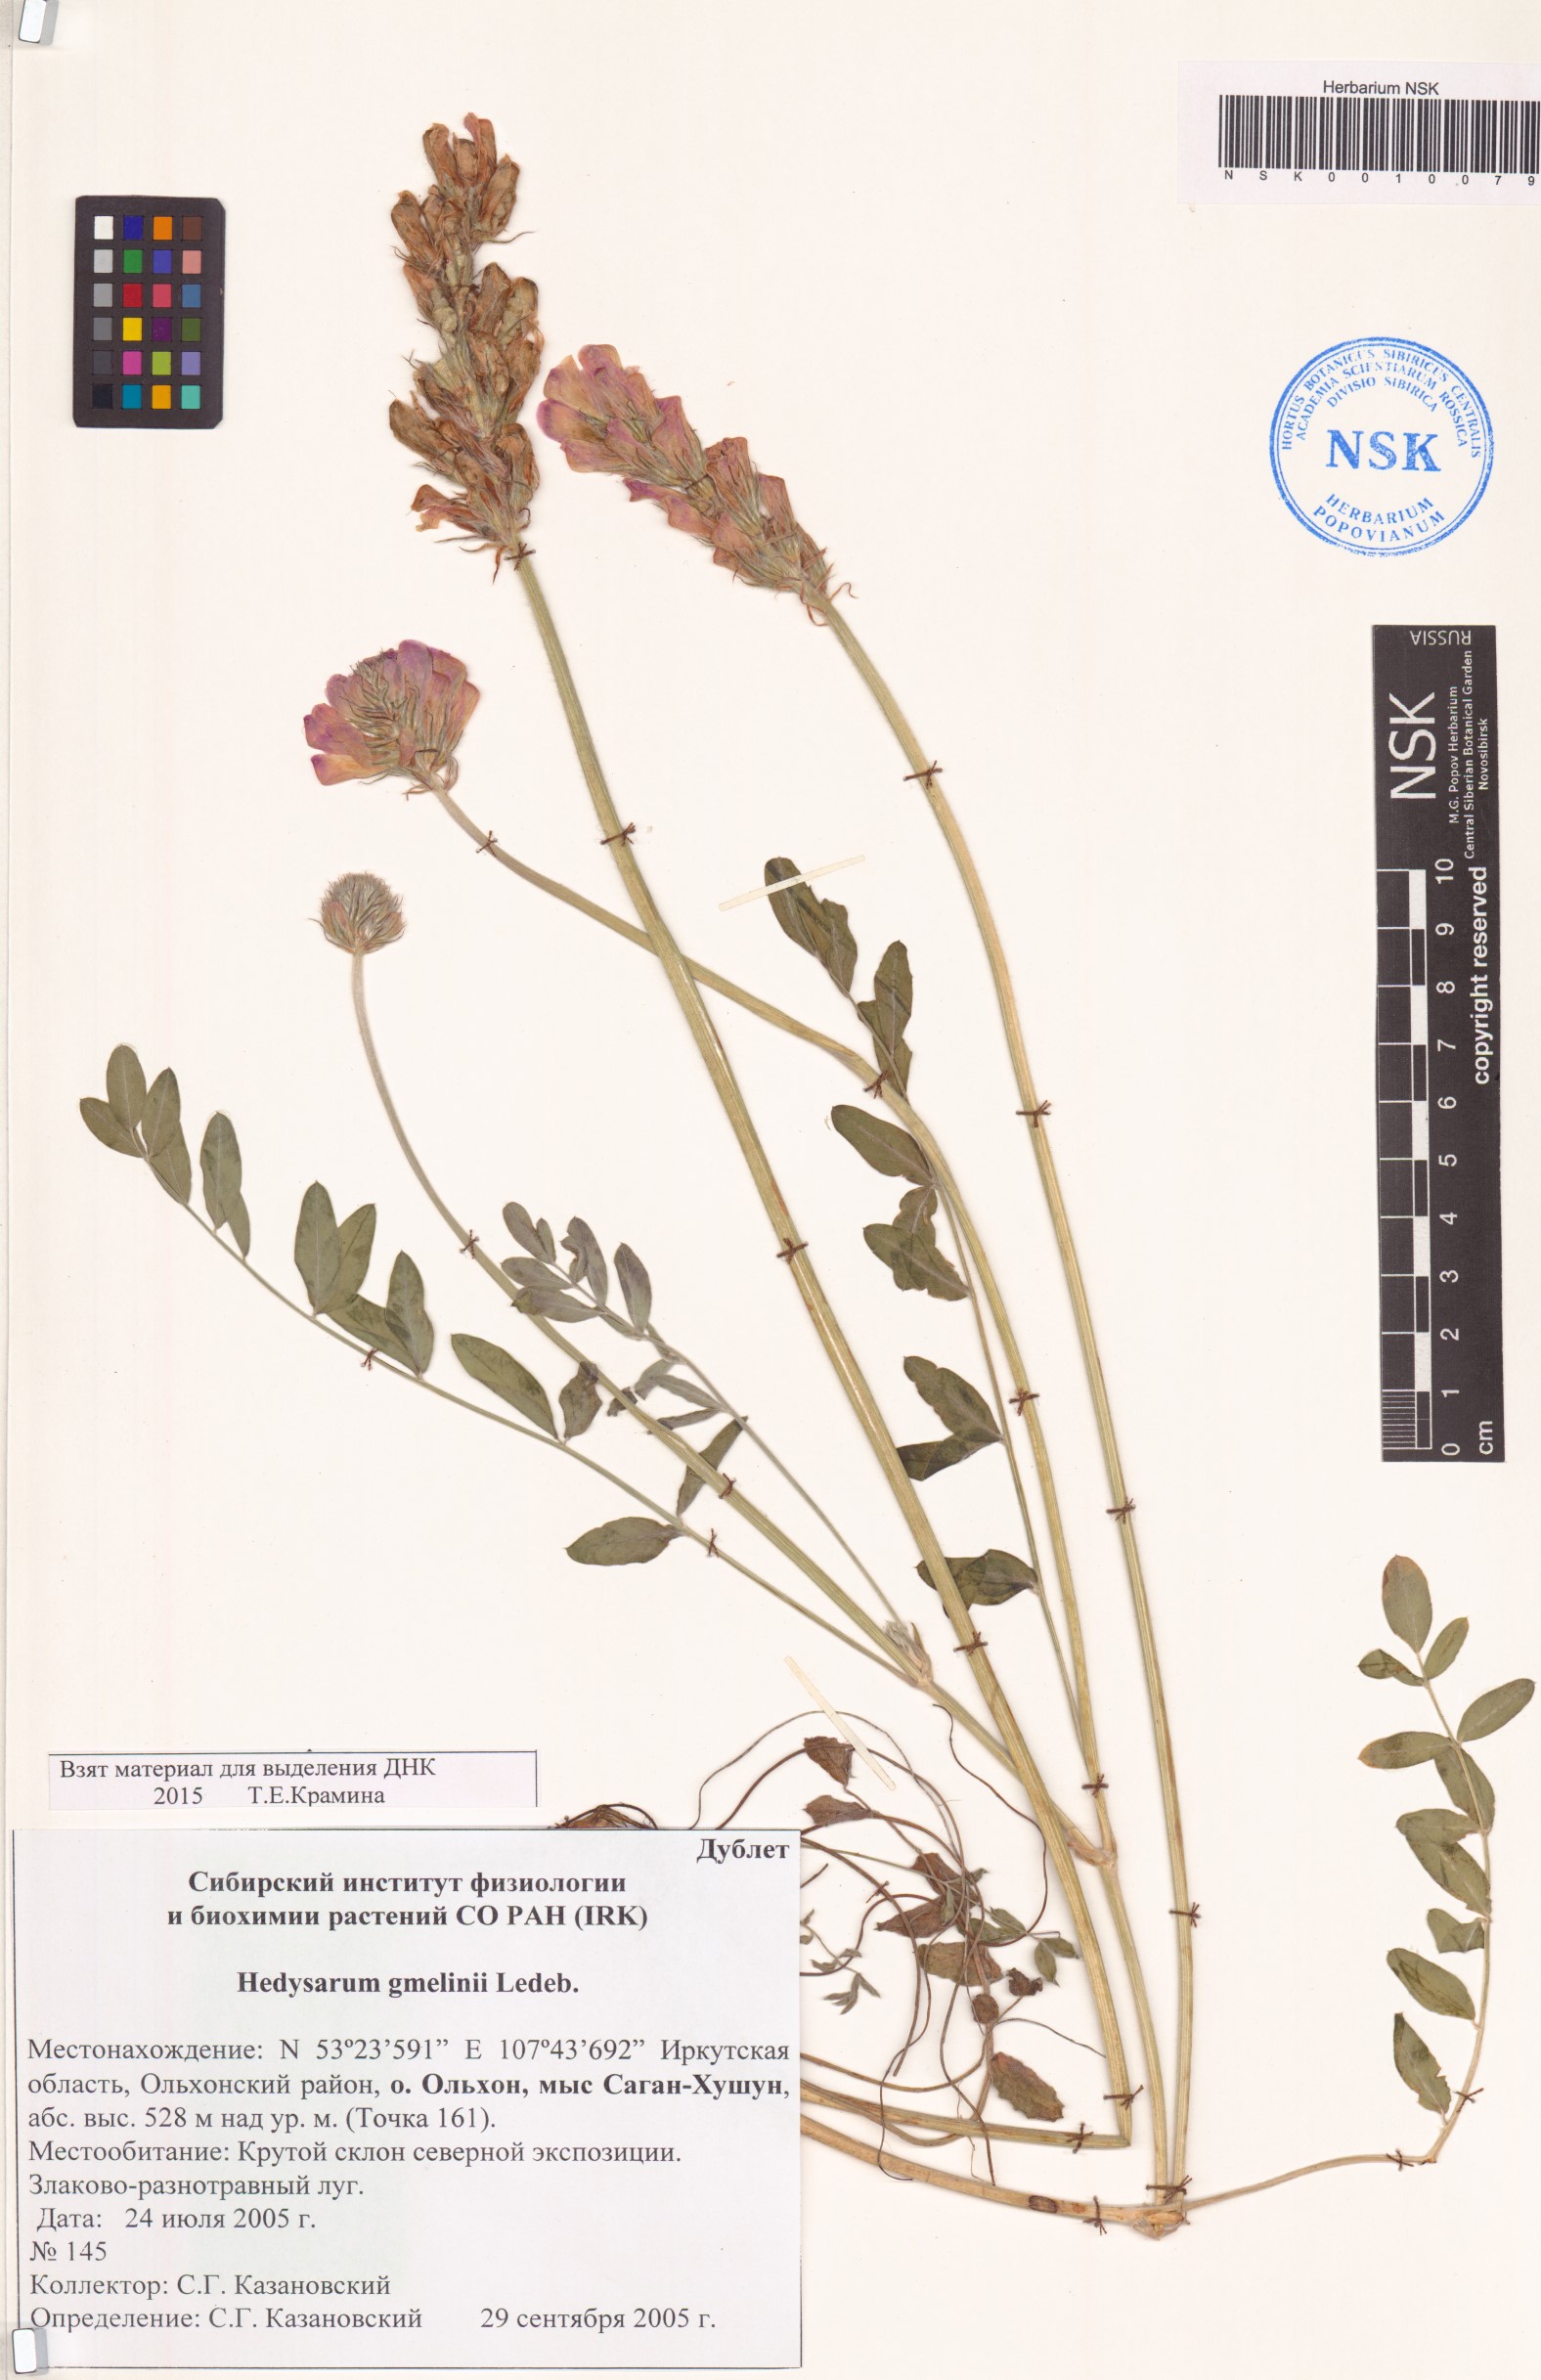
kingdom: Plantae
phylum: Tracheophyta
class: Magnoliopsida
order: Fabales
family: Fabaceae
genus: Hedysarum
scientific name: Hedysarum gmelinii
